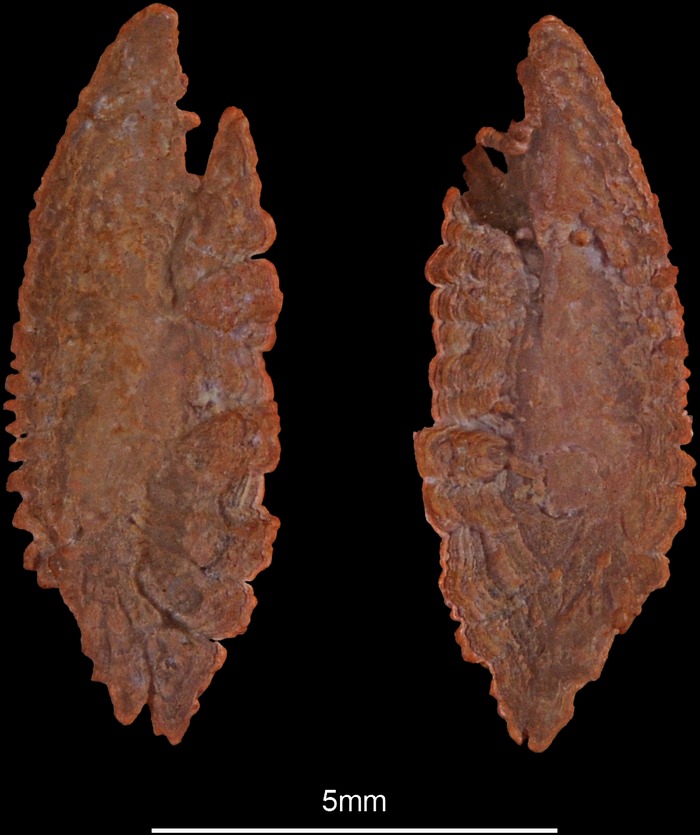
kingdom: Animalia
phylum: Chordata
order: Scorpaeniformes
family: Scorpaenidae
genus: Scorpaena
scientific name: Scorpaena stephanica
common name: Spotted fin scorpionfish
